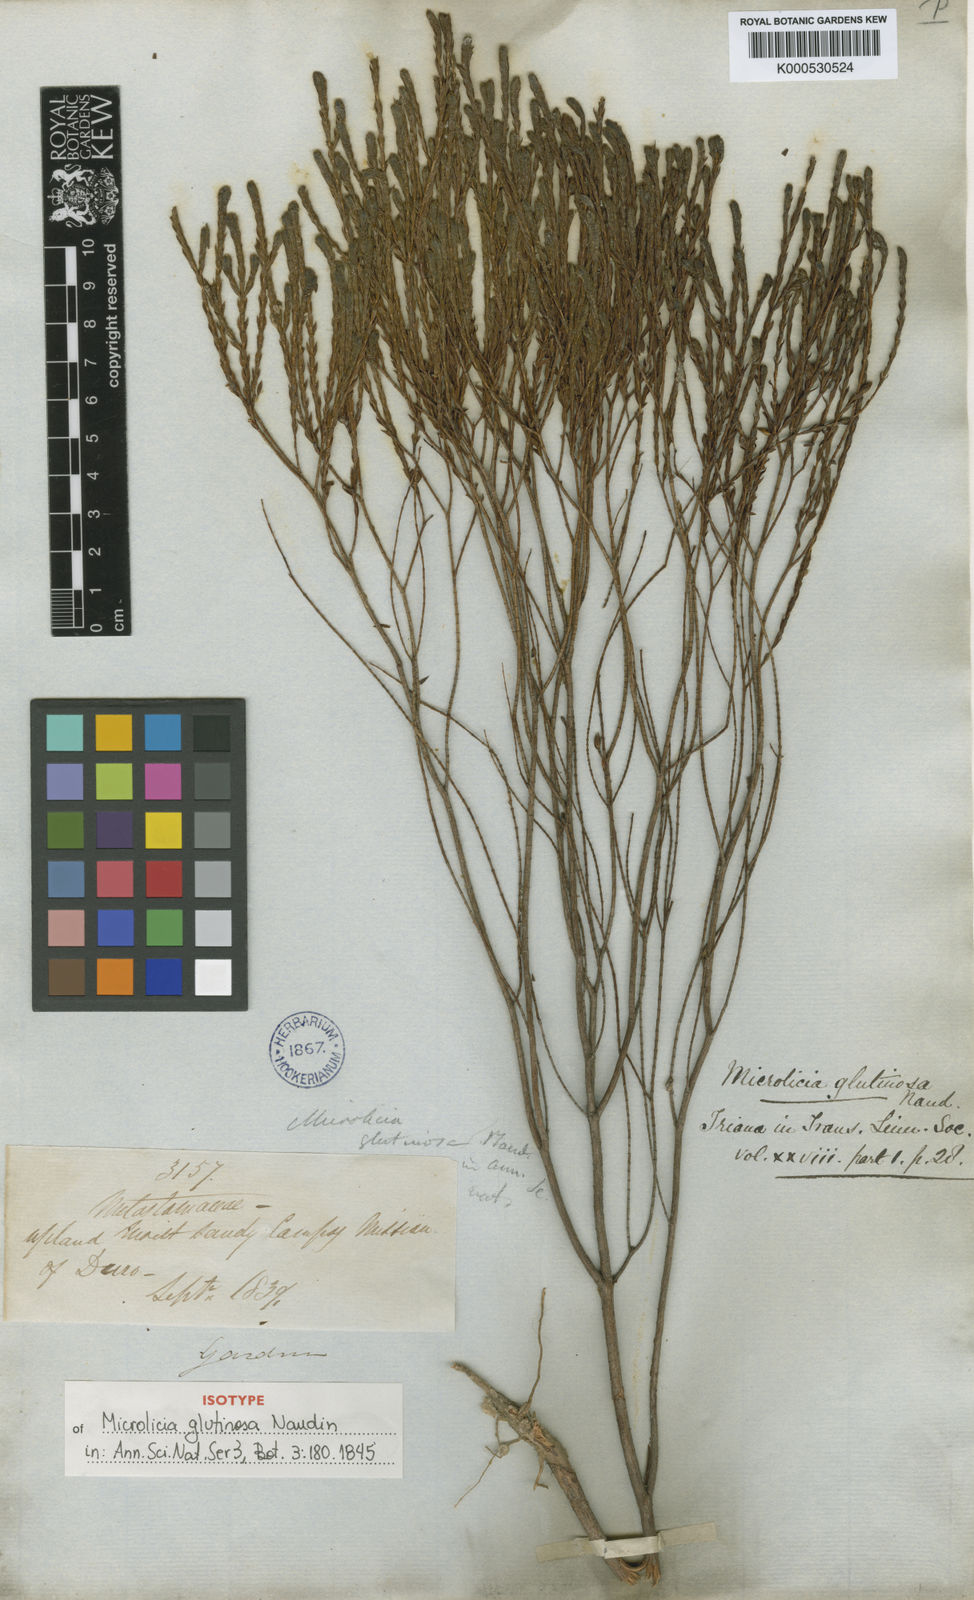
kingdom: Plantae
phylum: Tracheophyta
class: Magnoliopsida
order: Myrtales
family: Melastomataceae
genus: Microlicia
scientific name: Microlicia glutinosa
